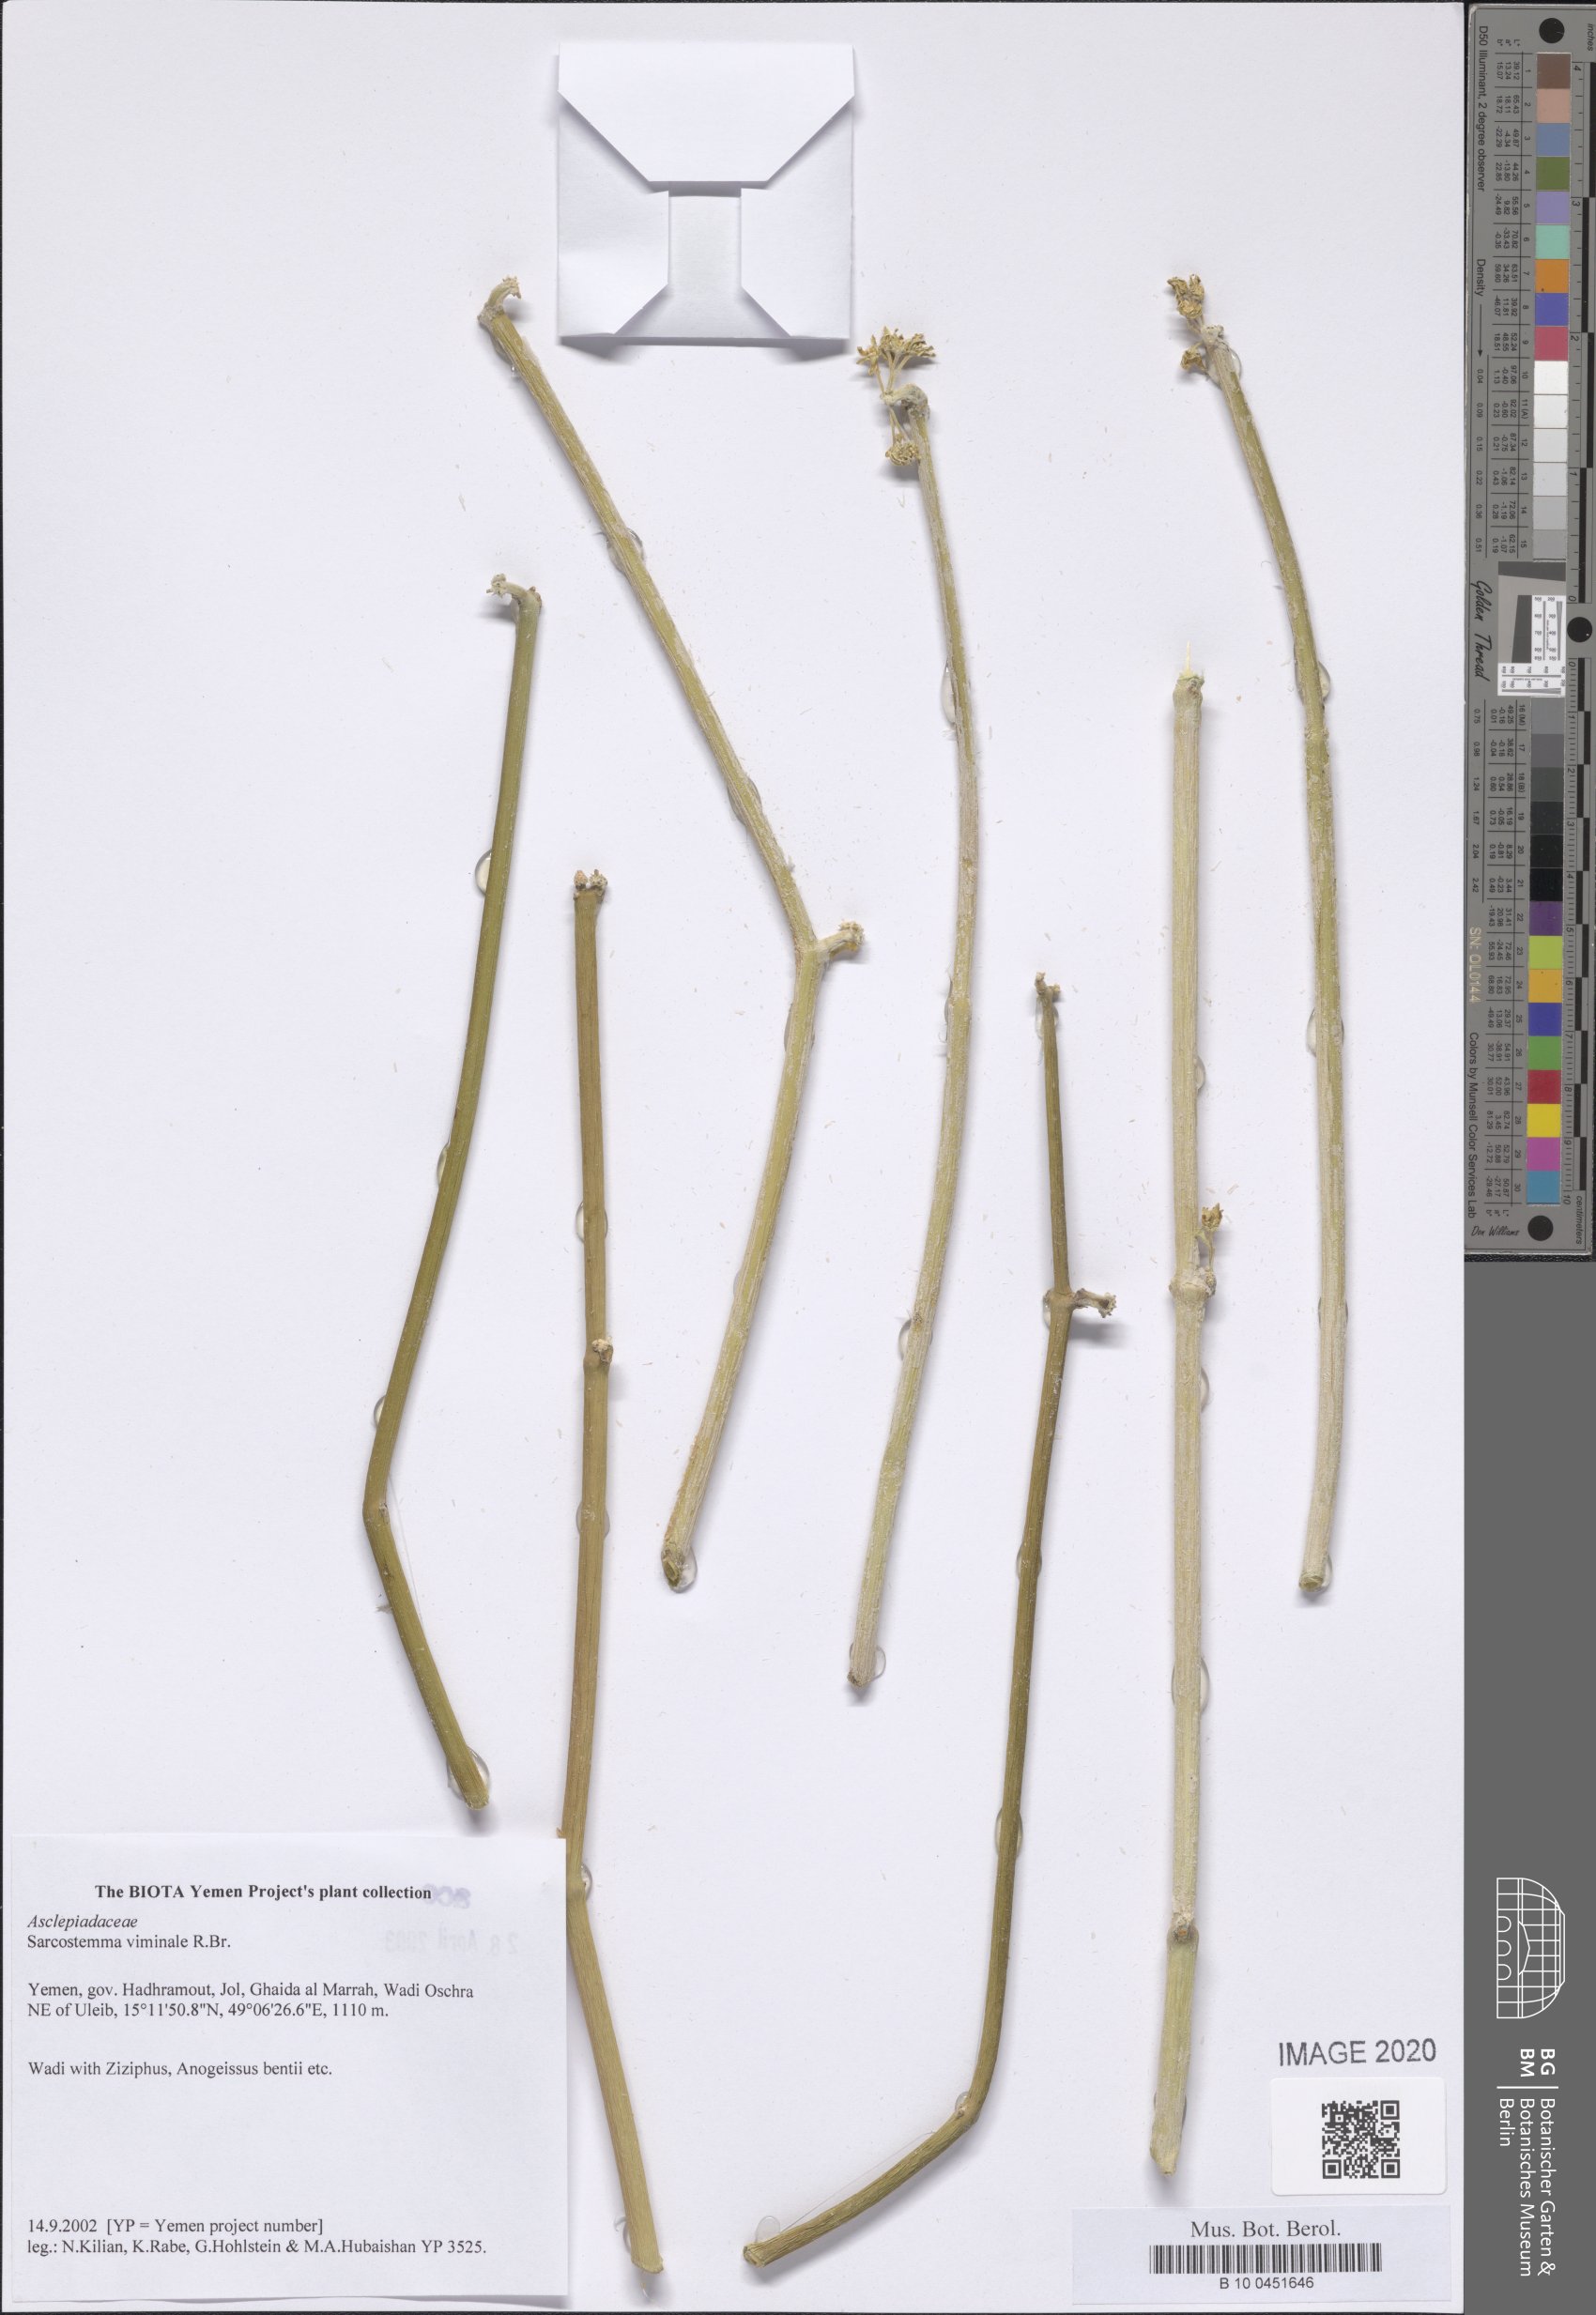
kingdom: Plantae
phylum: Tracheophyta
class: Magnoliopsida
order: Gentianales
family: Apocynaceae
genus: Cynanchum
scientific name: Cynanchum viminale
